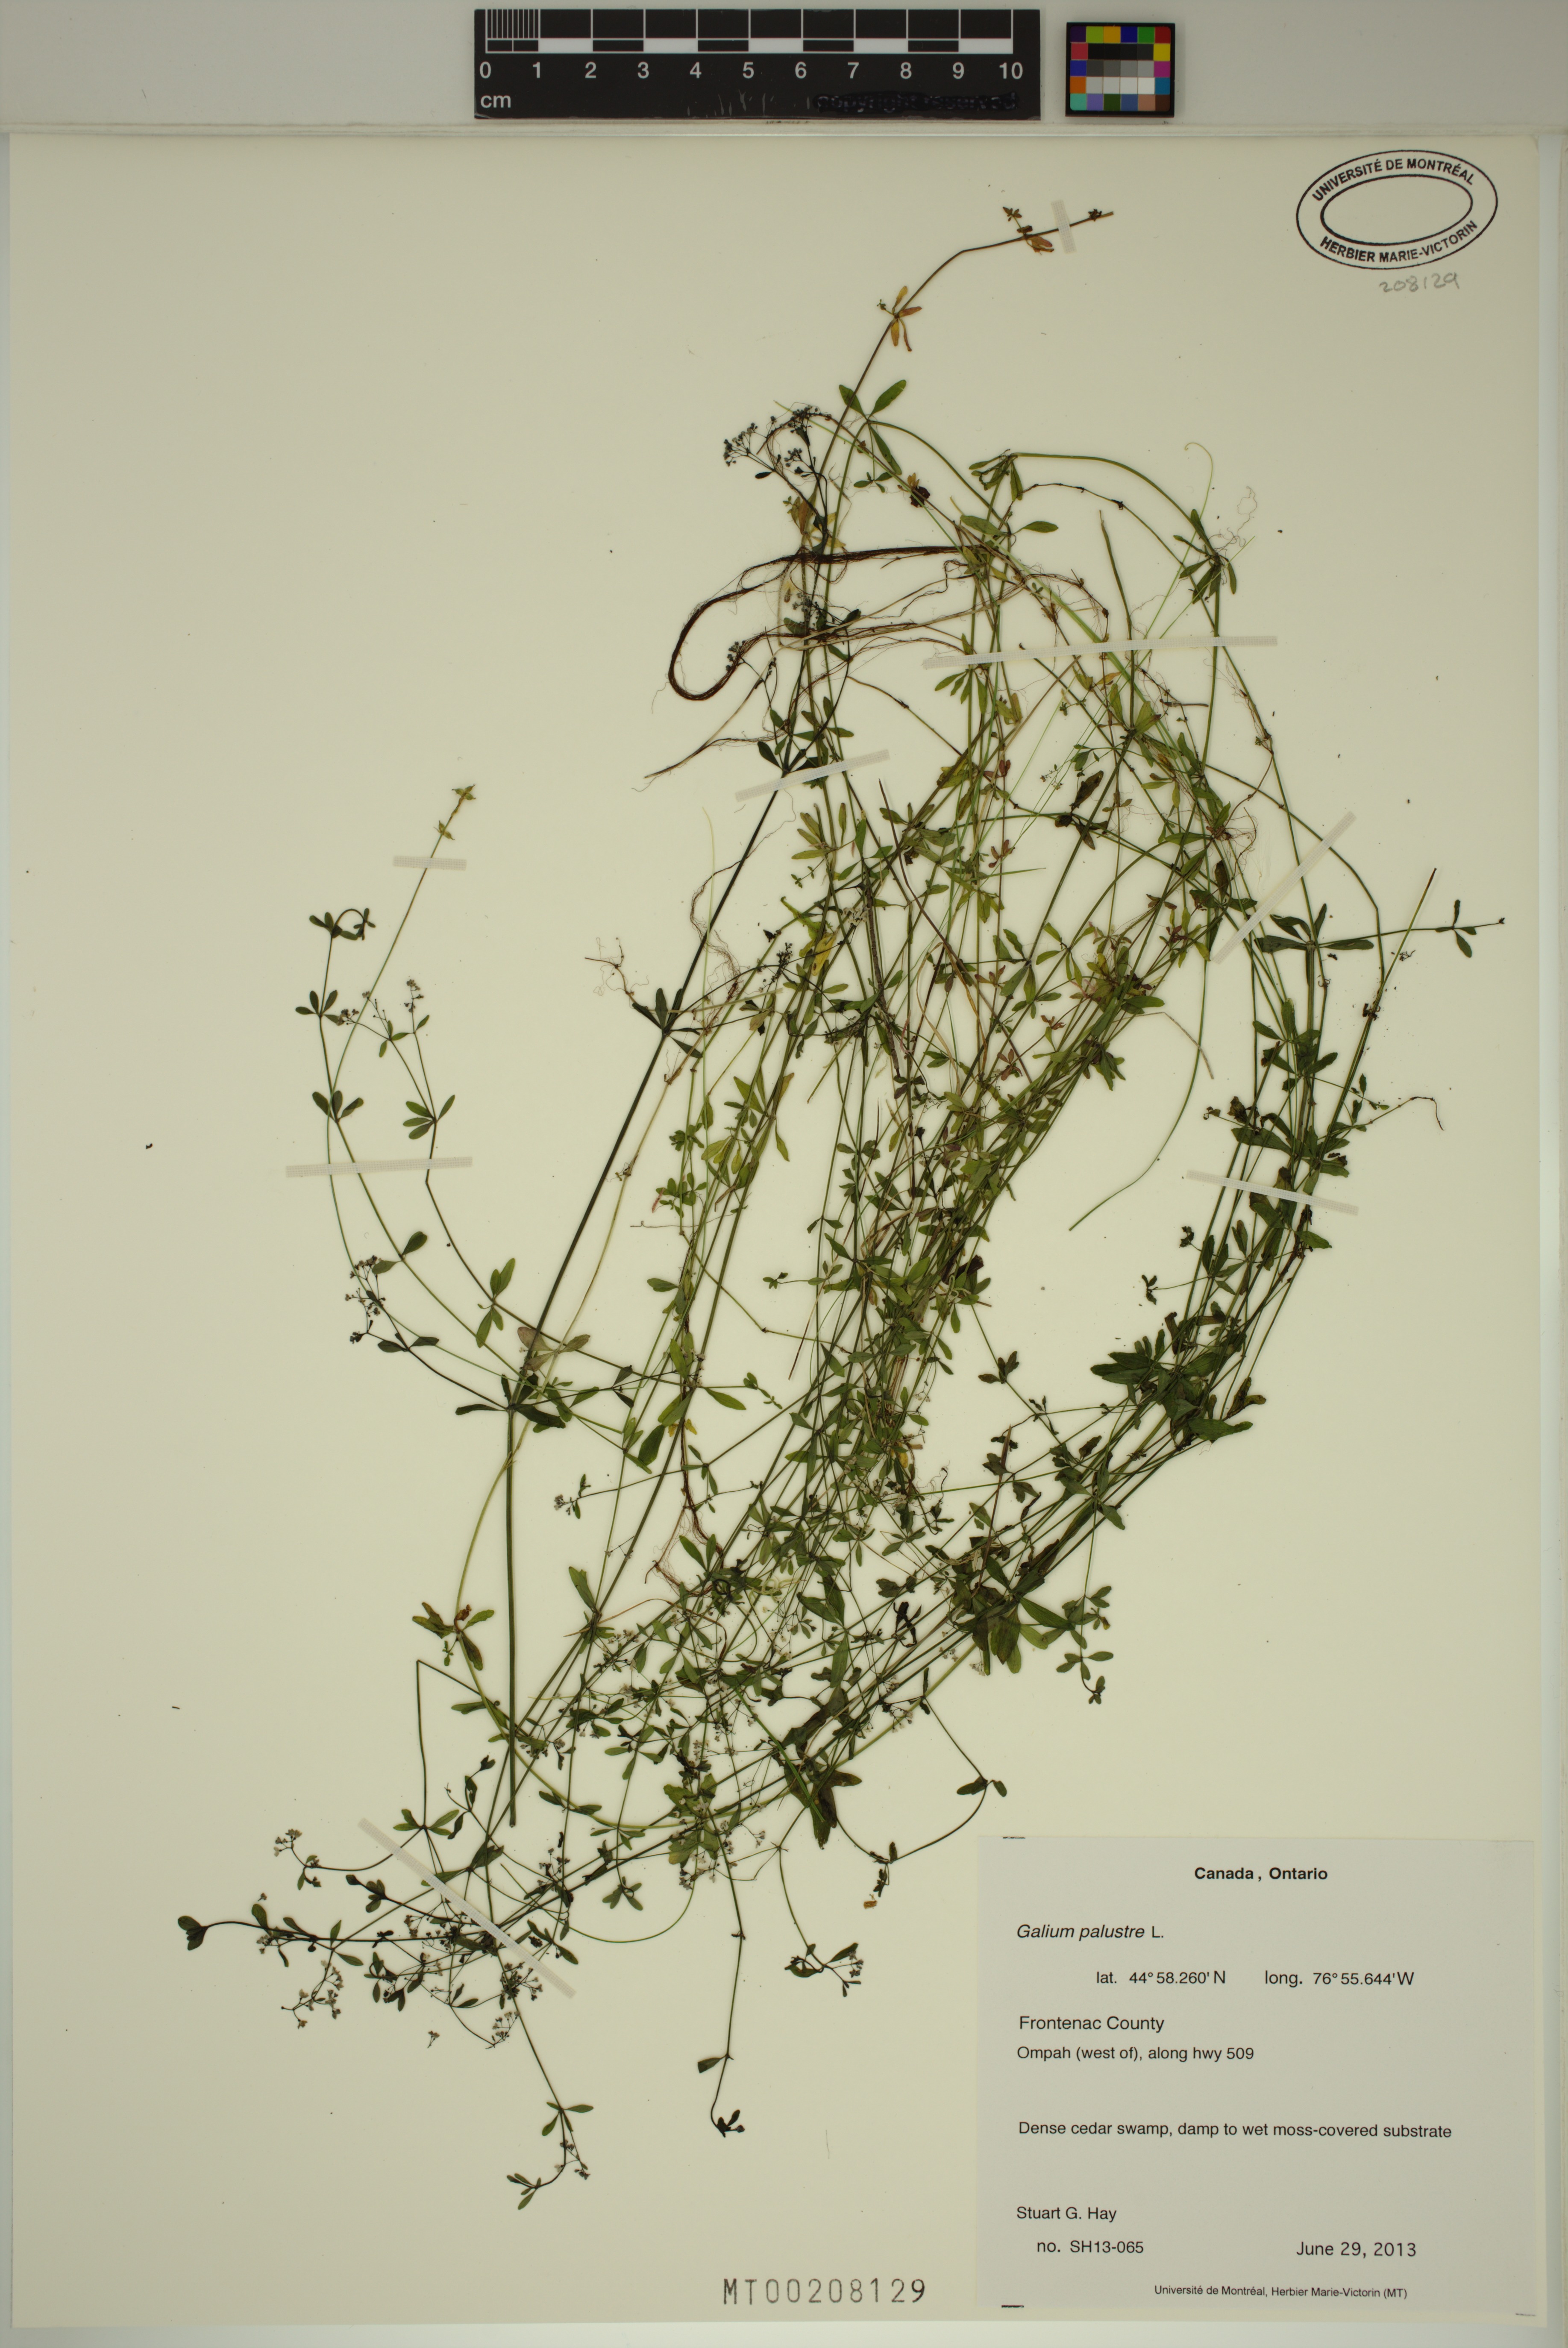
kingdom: Plantae
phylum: Tracheophyta
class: Magnoliopsida
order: Gentianales
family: Rubiaceae
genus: Galium
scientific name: Galium palustre
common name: Common marsh-bedstraw
